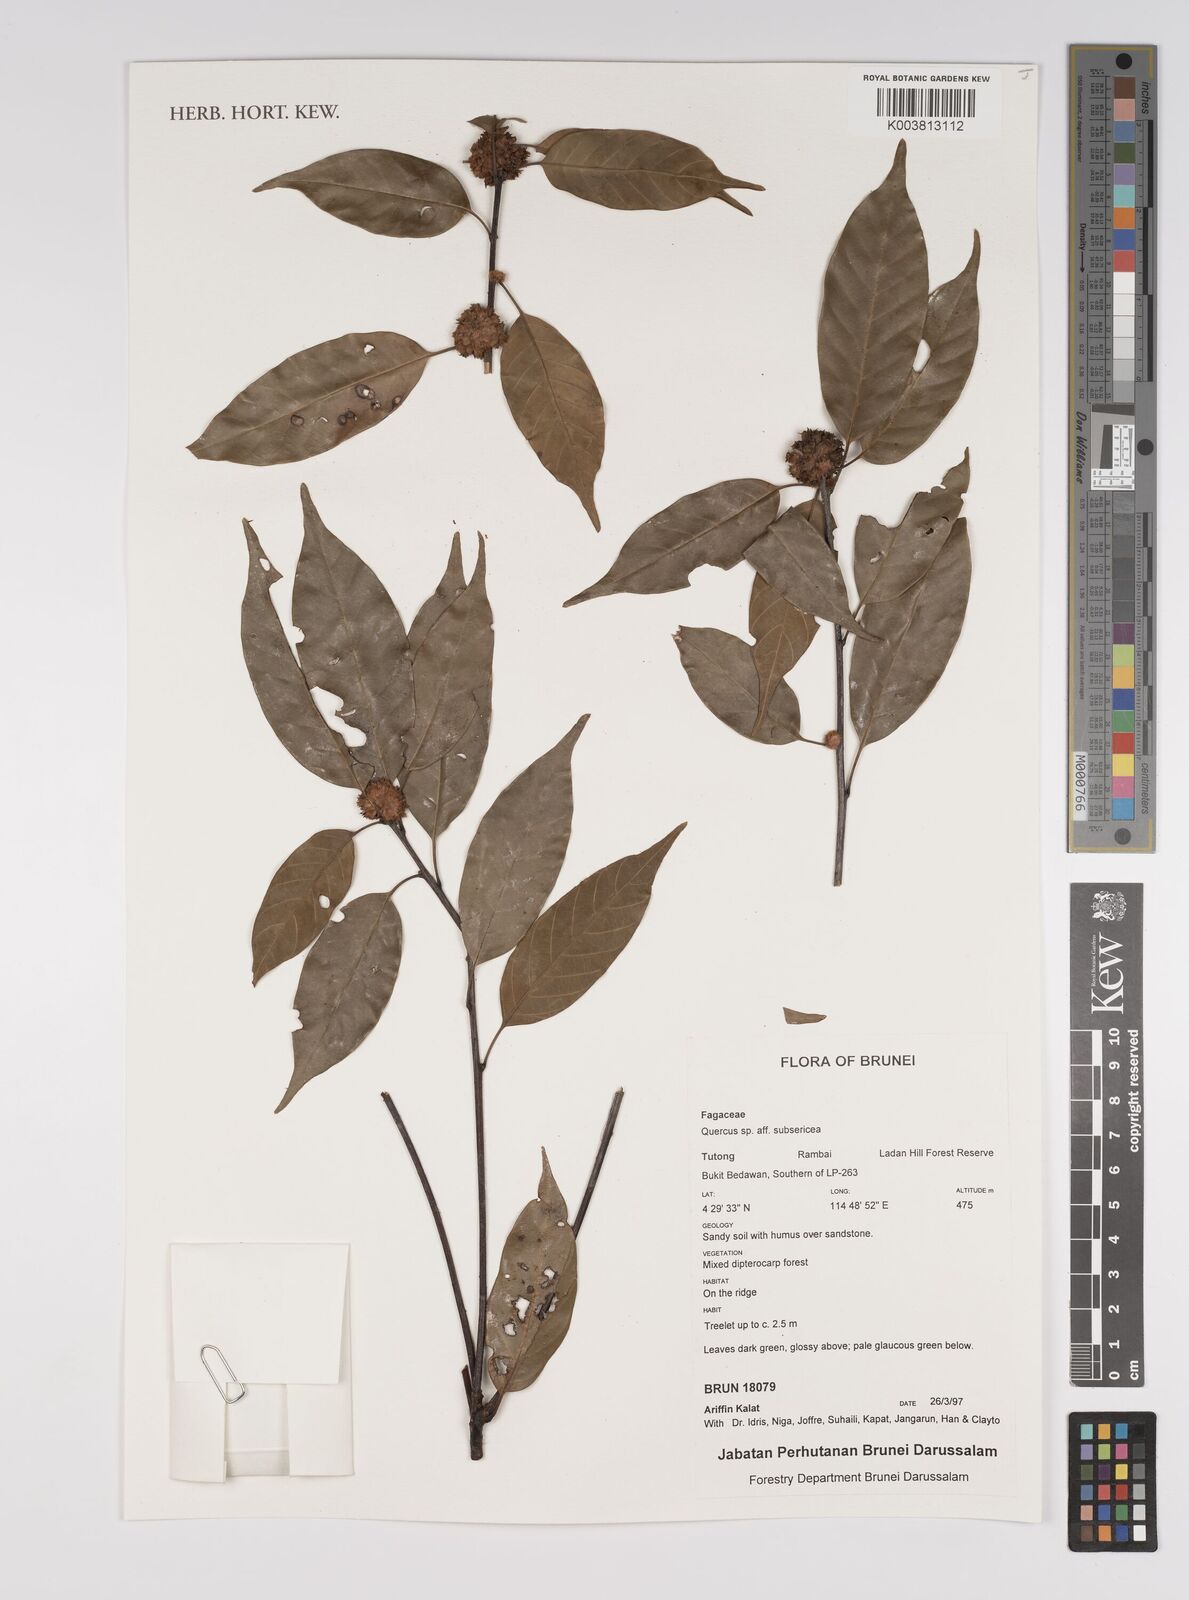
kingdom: Plantae
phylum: Tracheophyta
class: Magnoliopsida
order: Fagales
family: Fagaceae
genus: Quercus
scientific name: Quercus subsericea
